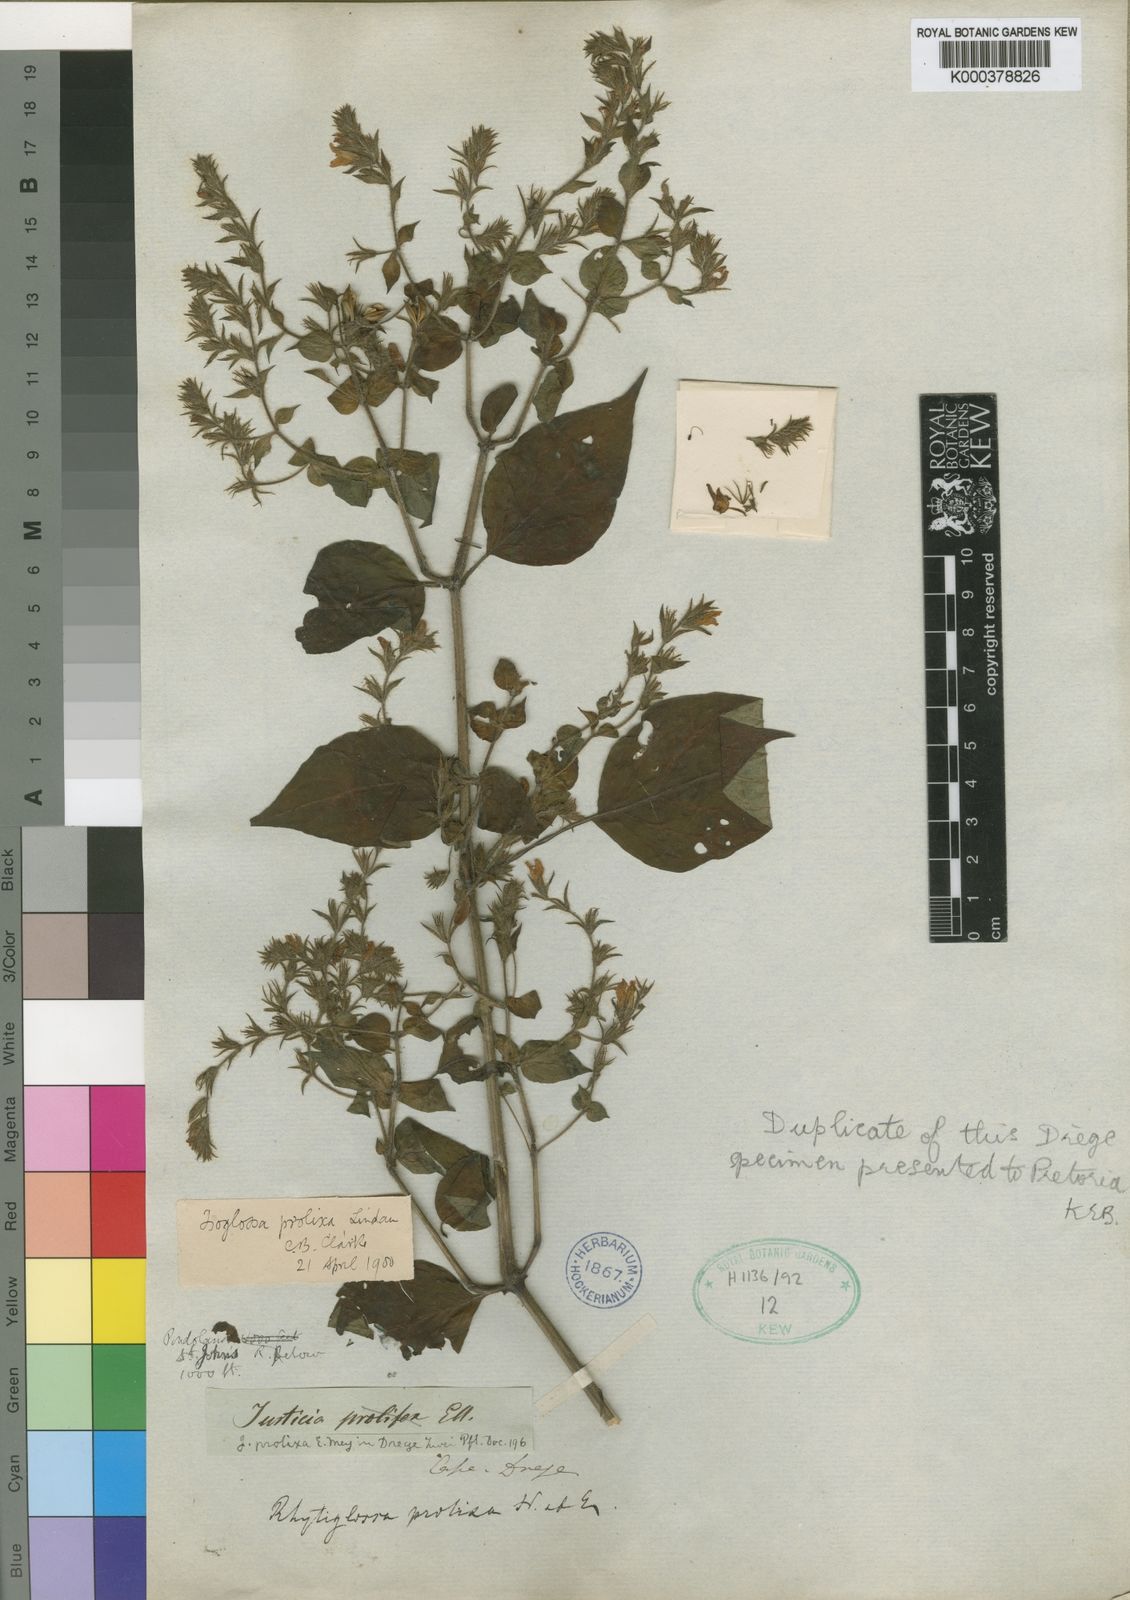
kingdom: Plantae
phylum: Tracheophyta
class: Magnoliopsida
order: Lamiales
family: Acanthaceae
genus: Isoglossa
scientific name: Isoglossa prolixa
